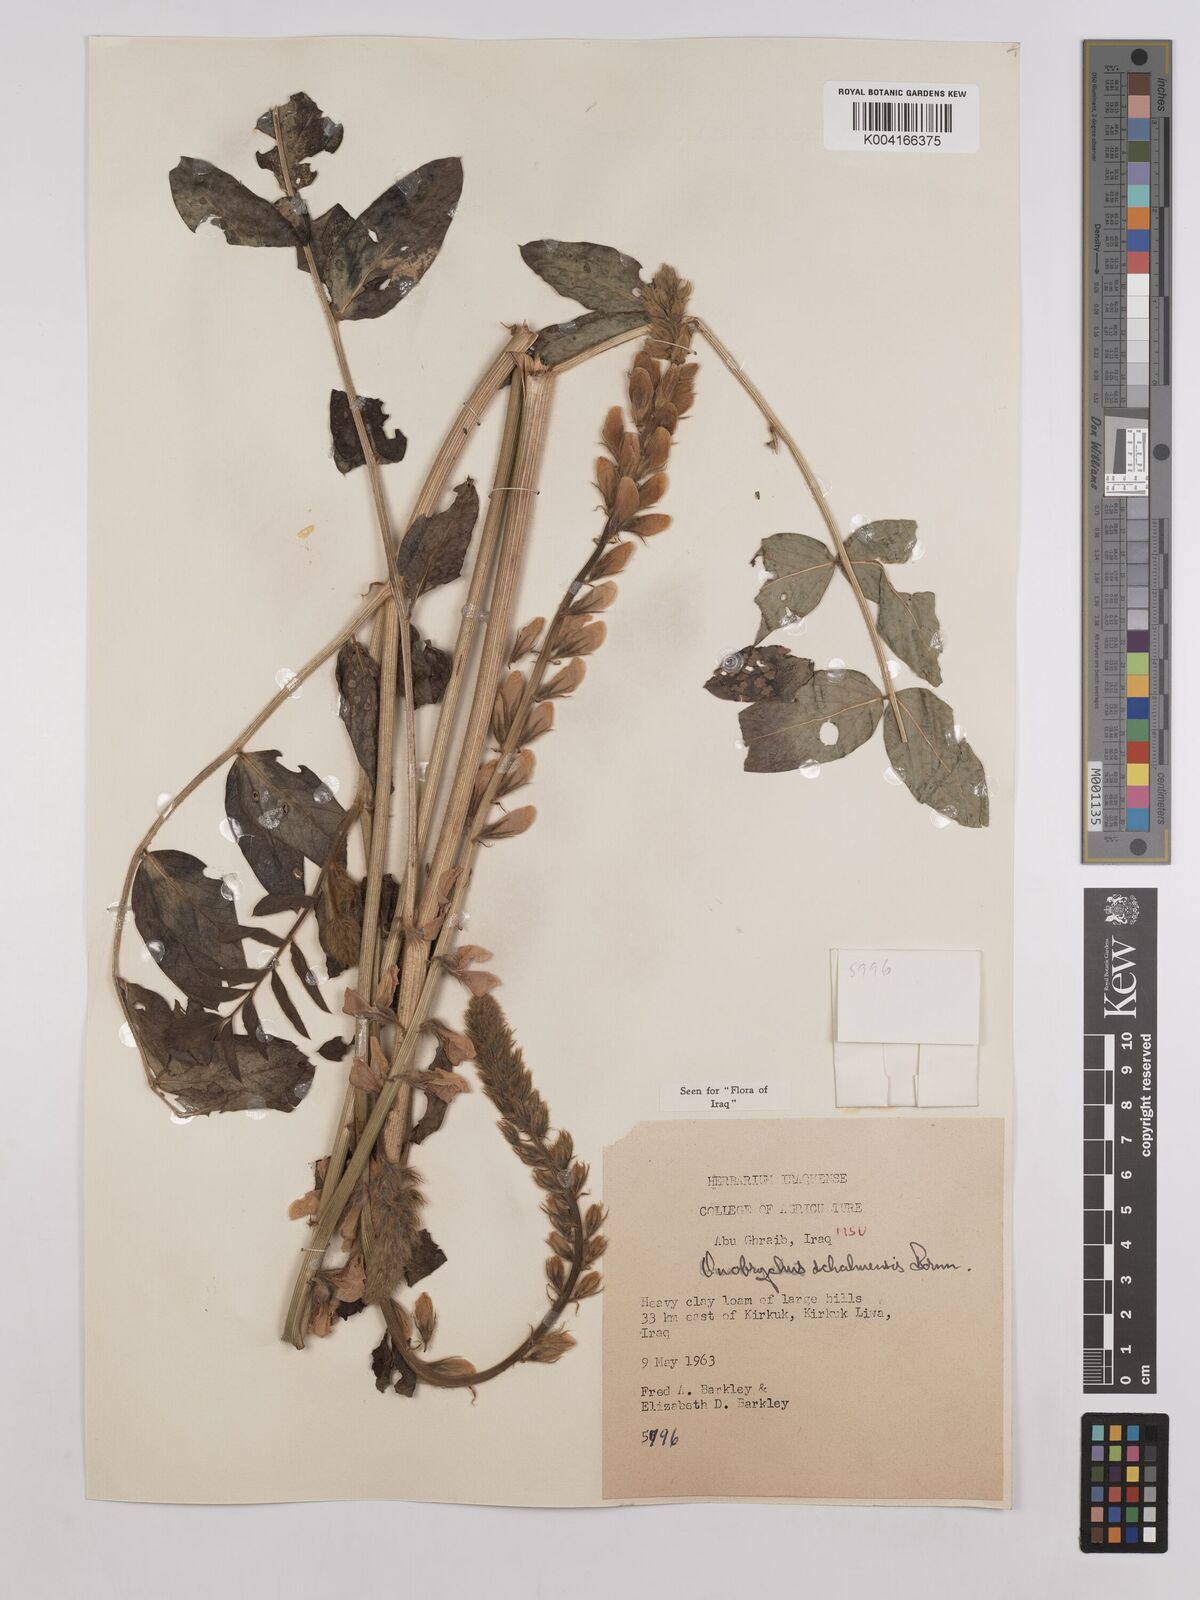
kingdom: Plantae
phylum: Tracheophyta
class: Magnoliopsida
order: Fabales
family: Fabaceae
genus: Onobrychis
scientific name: Onobrychis schahuensis
